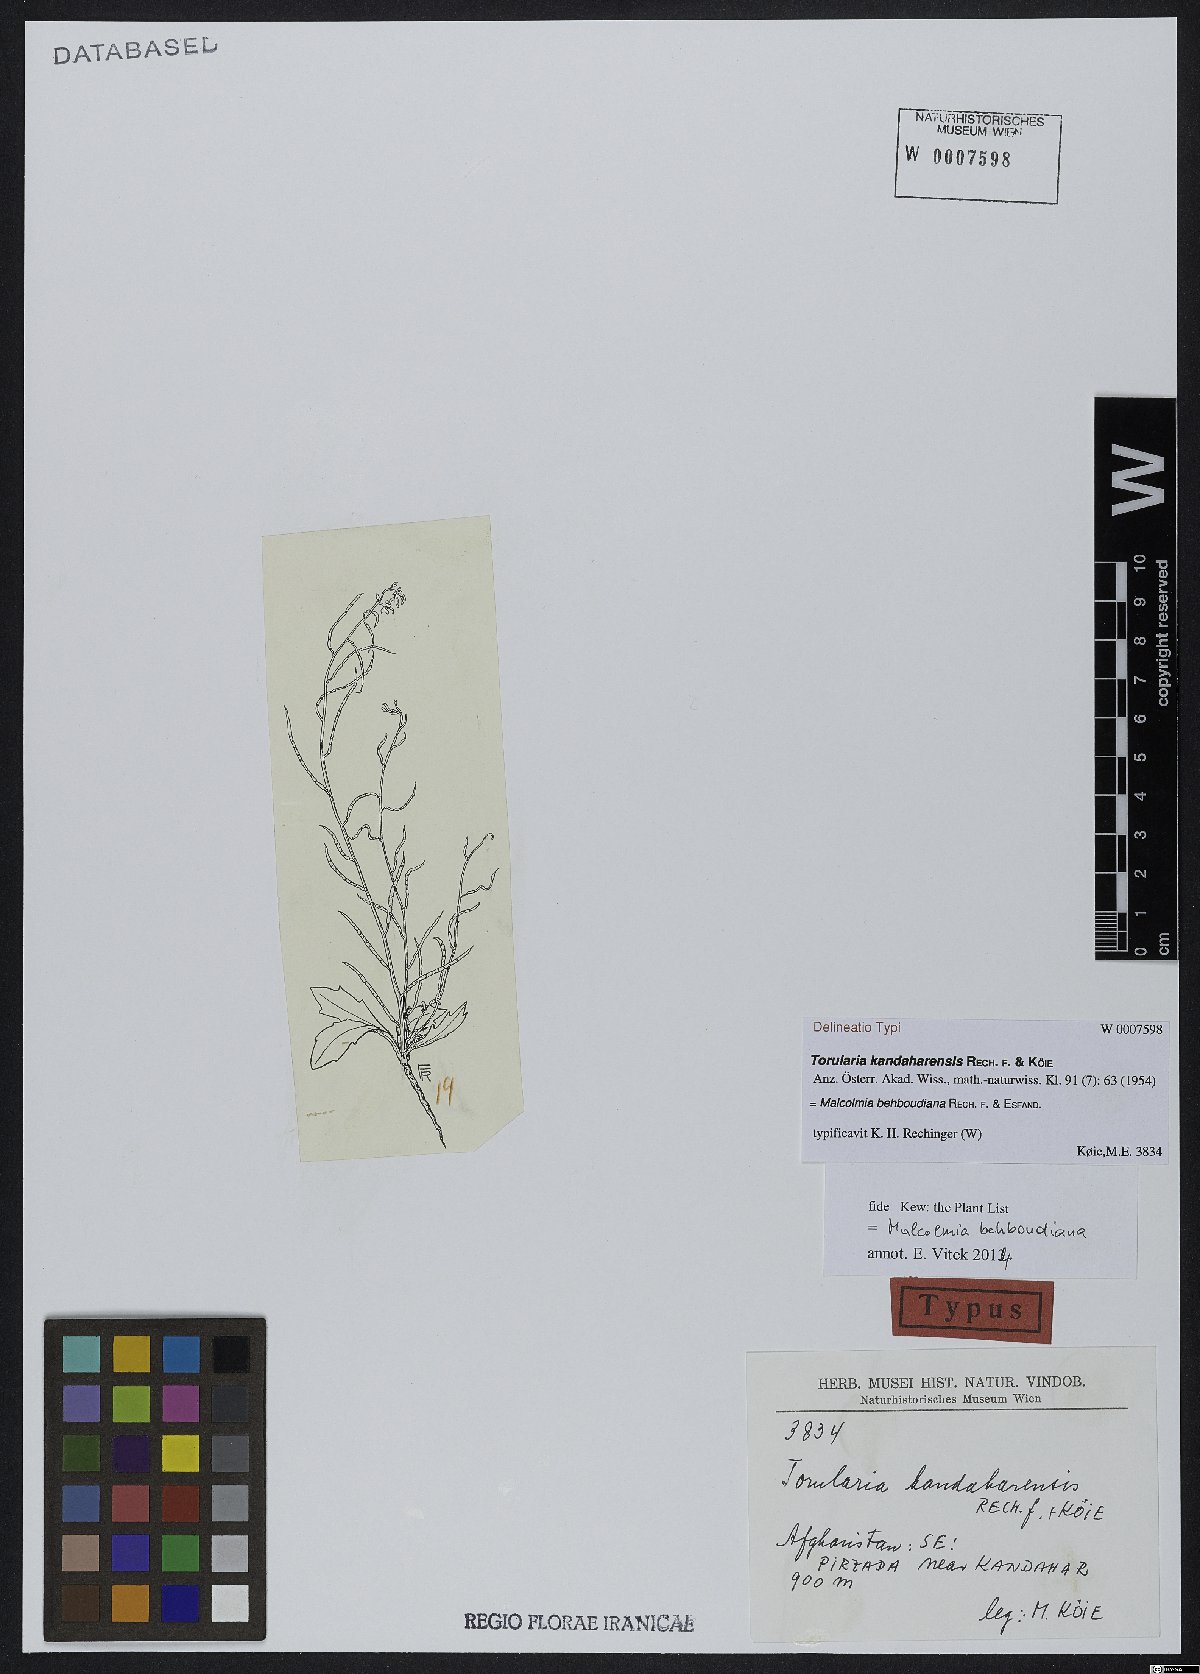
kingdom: Plantae
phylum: Tracheophyta
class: Magnoliopsida
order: Brassicales
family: Brassicaceae
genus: Strigosella
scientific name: Strigosella behboudiana
